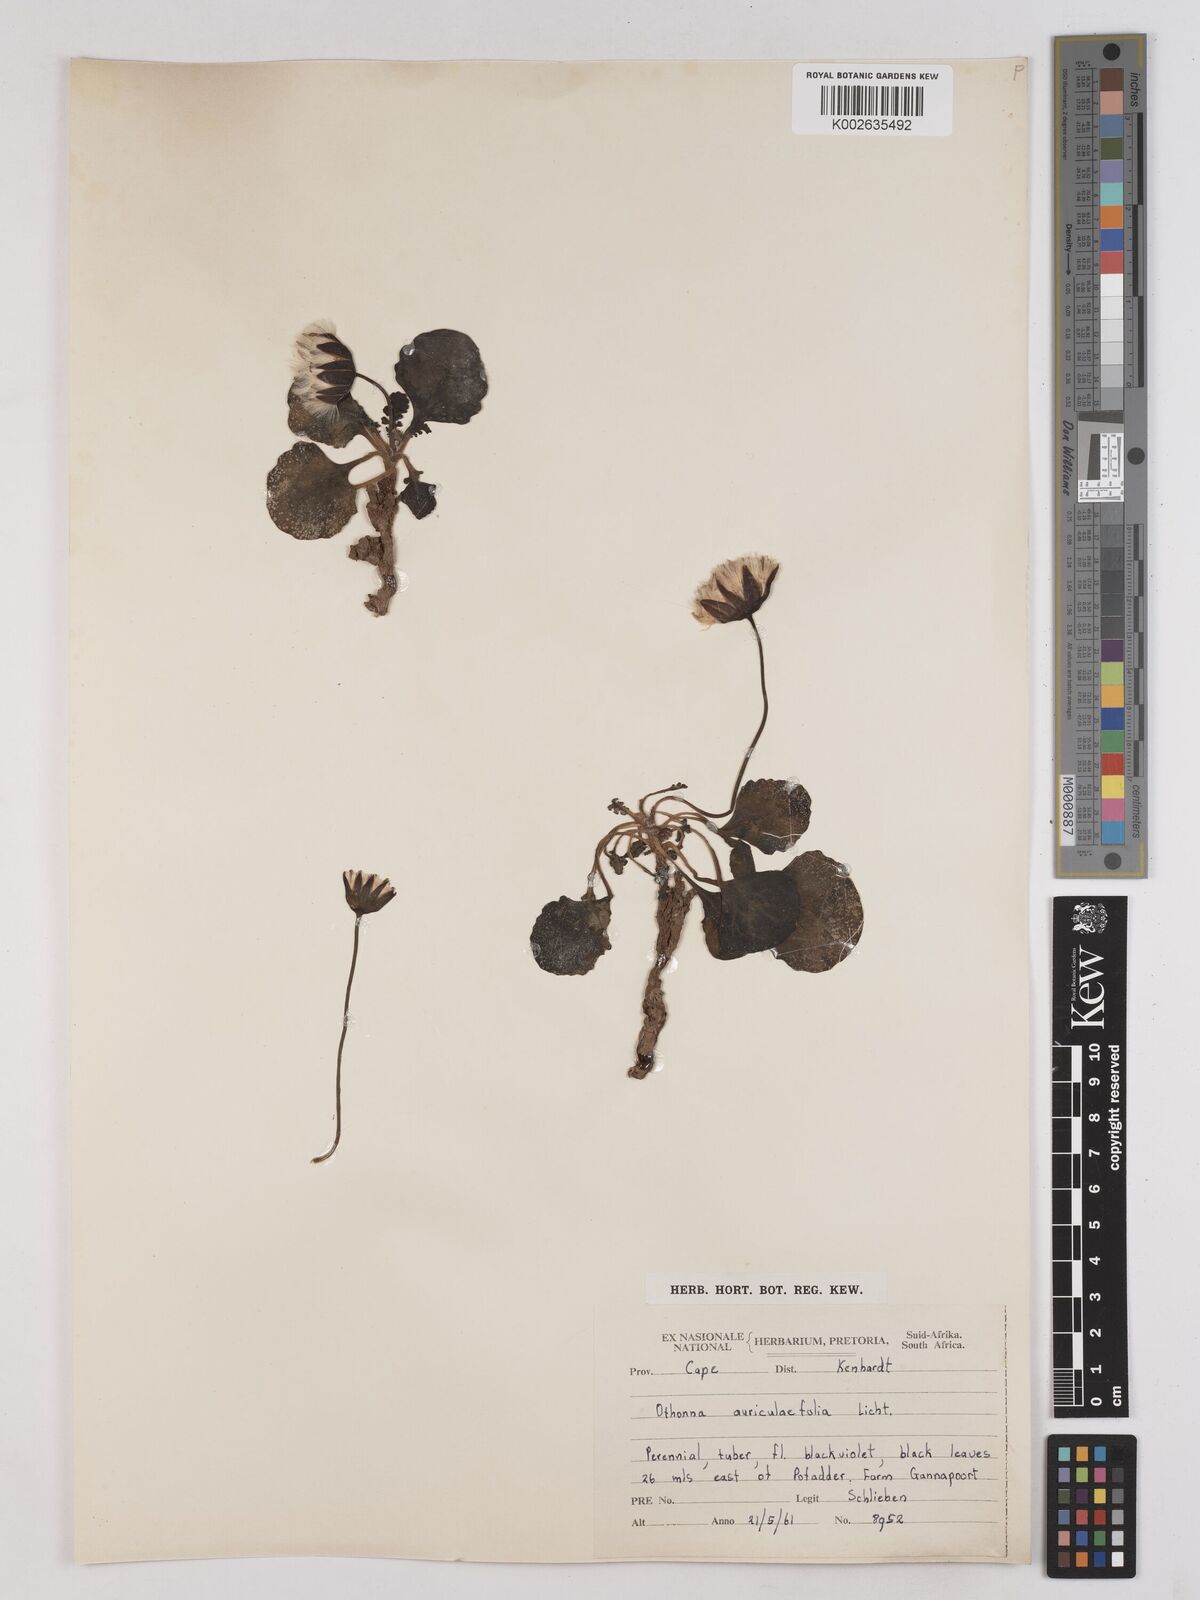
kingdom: Plantae
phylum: Tracheophyta
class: Magnoliopsida
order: Asterales
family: Asteraceae
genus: Othonna
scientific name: Othonna auriculifolia
